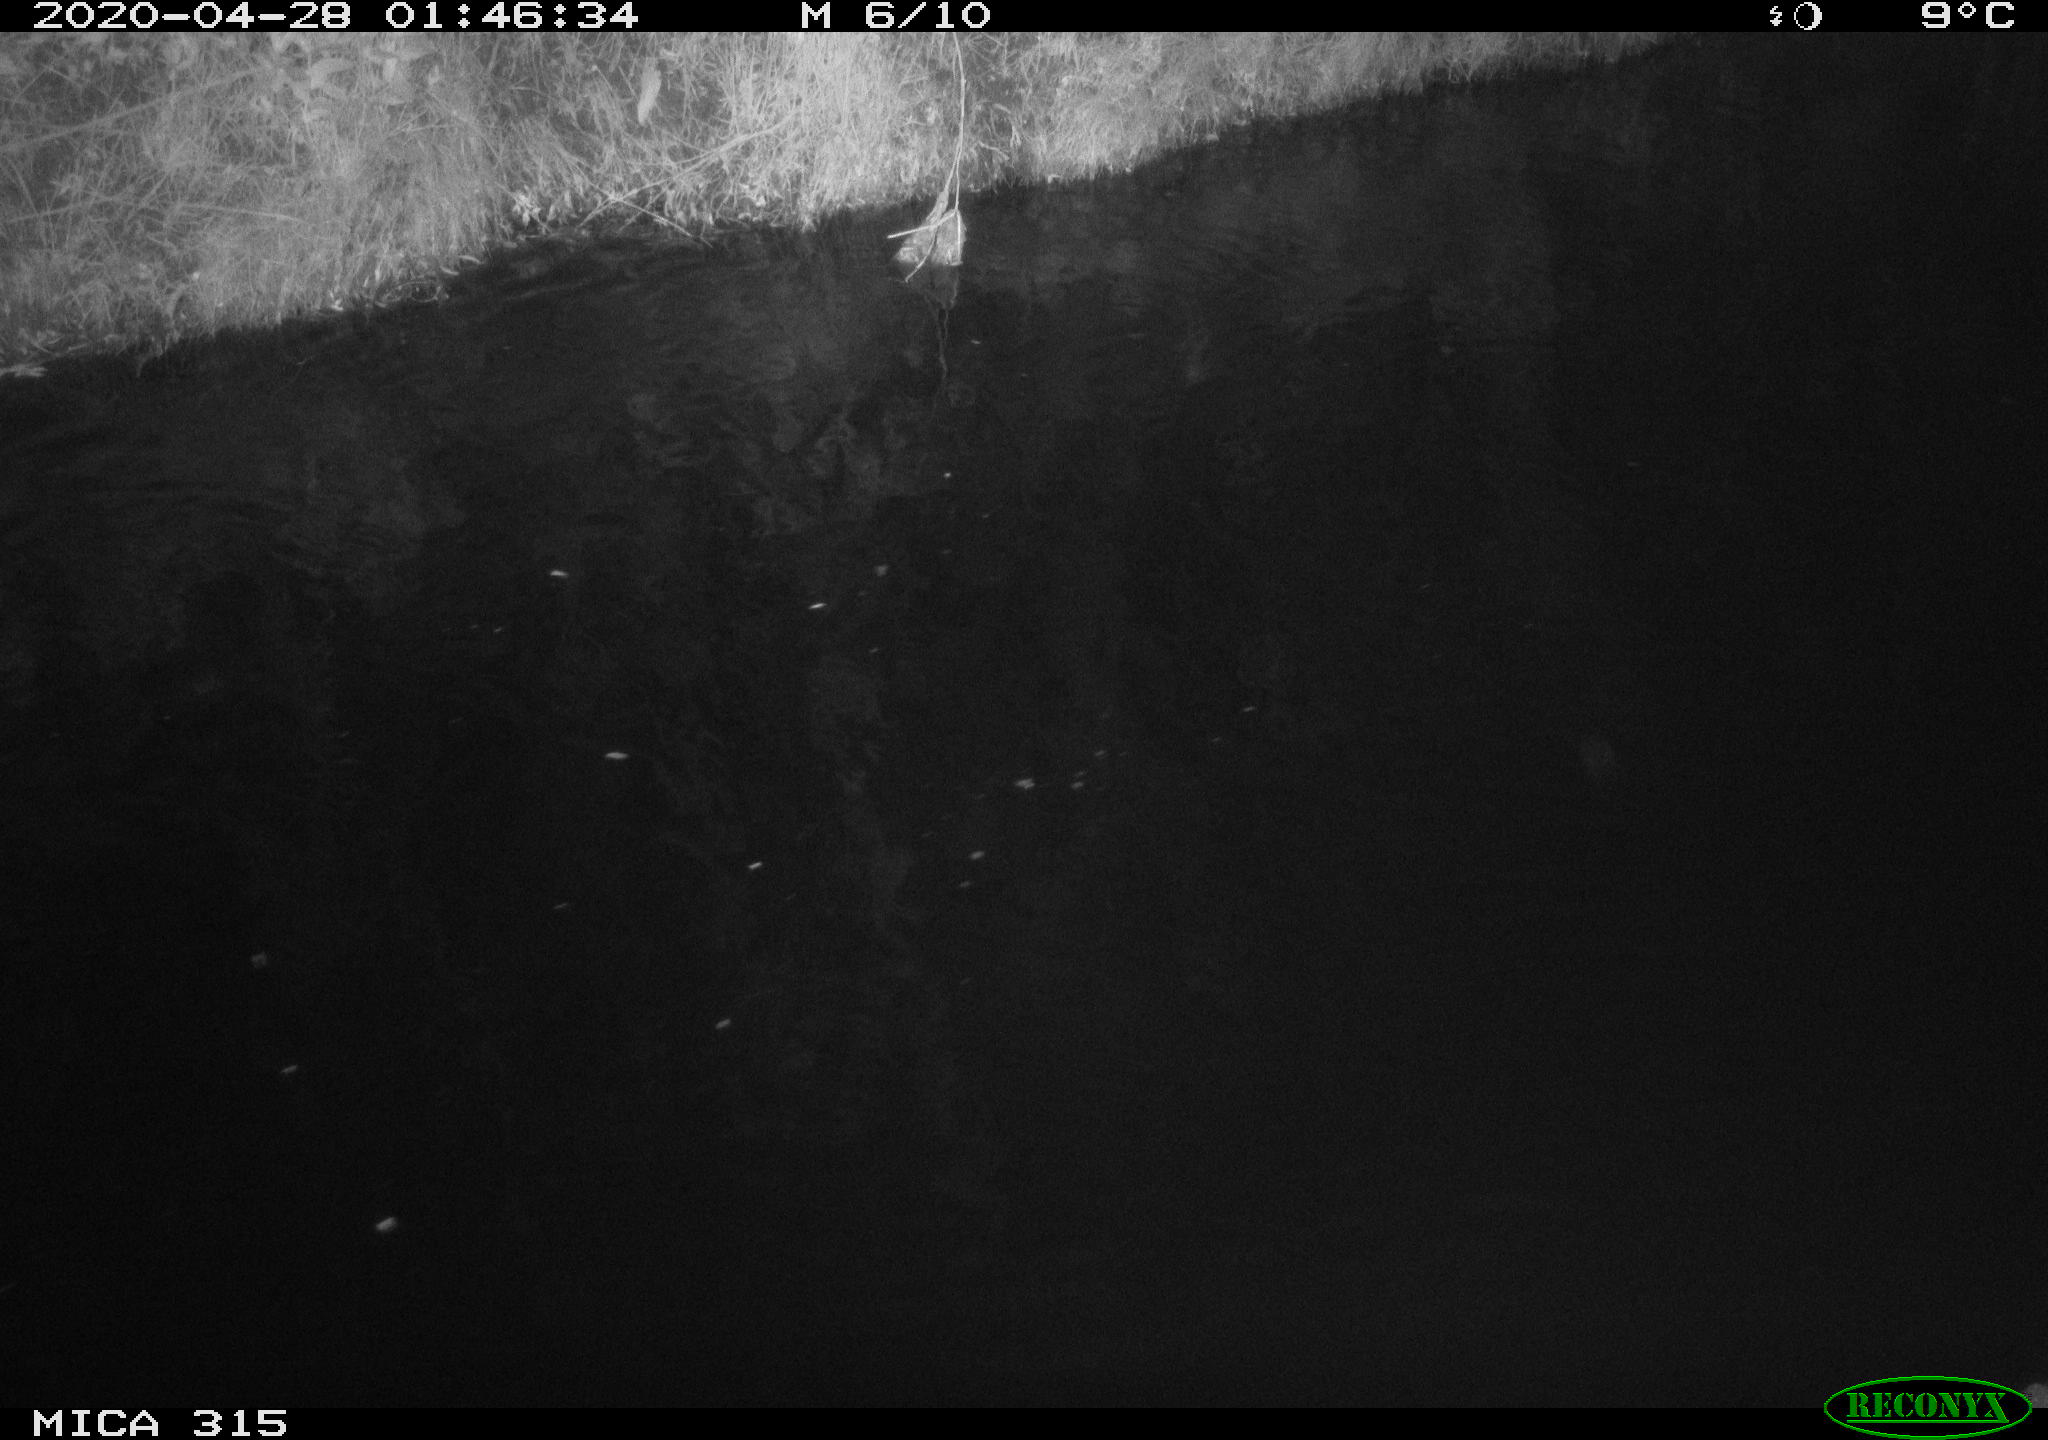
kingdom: Animalia
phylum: Chordata
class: Aves
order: Anseriformes
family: Anatidae
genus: Anas
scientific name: Anas platyrhynchos
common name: Mallard
